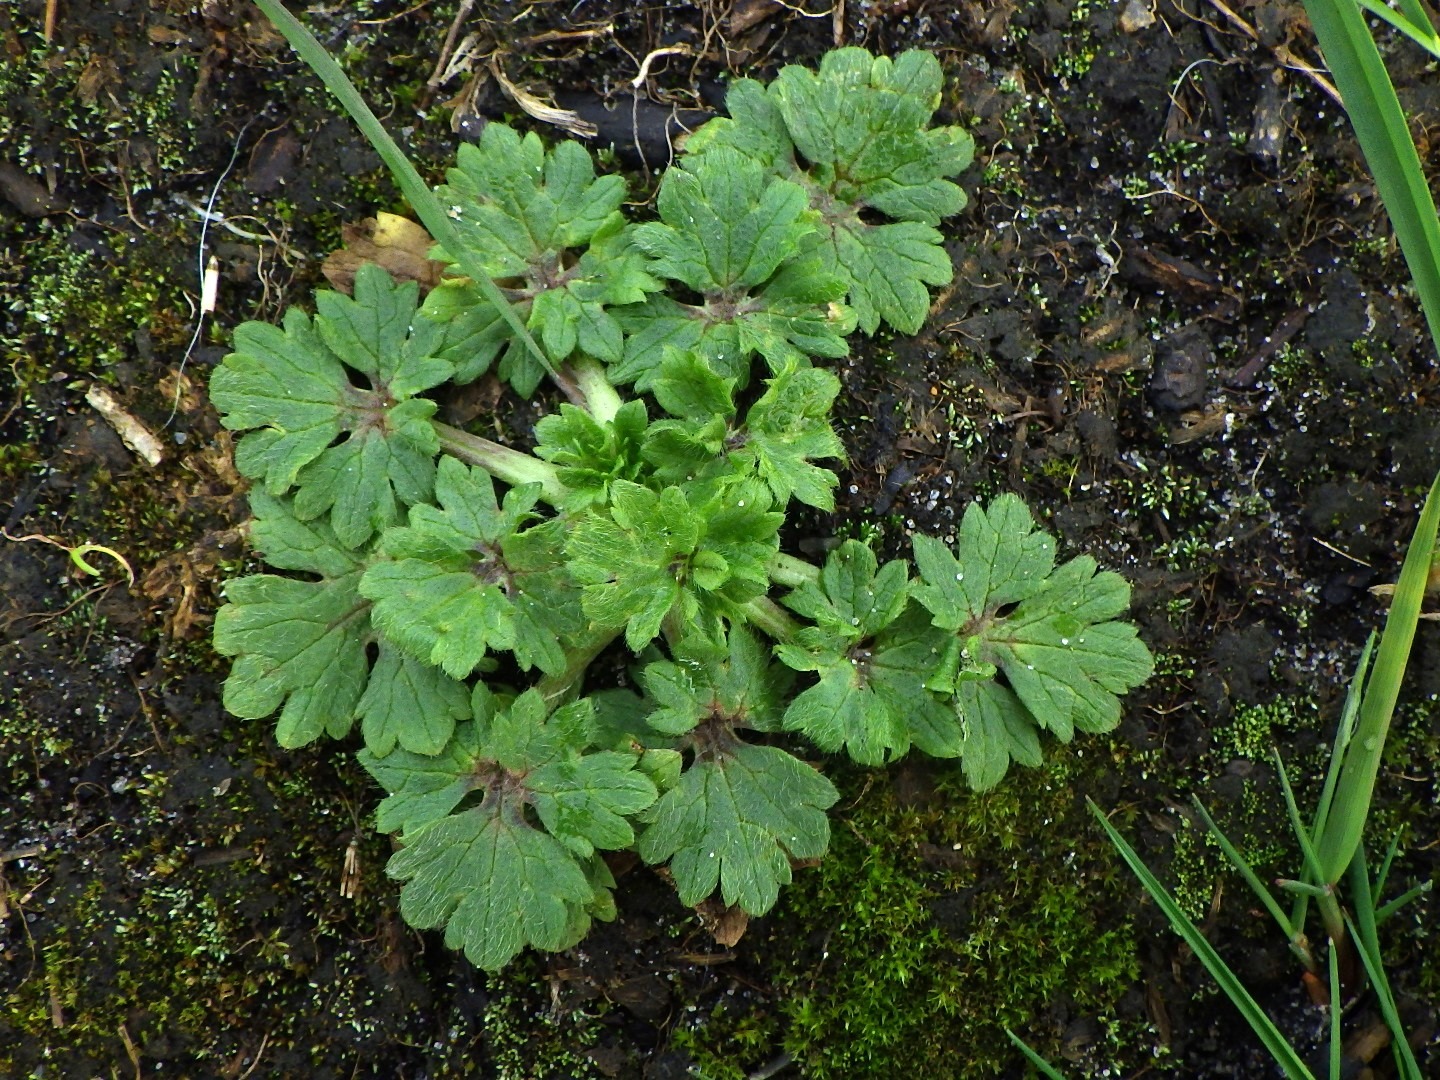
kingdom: Plantae
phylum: Tracheophyta
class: Magnoliopsida
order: Ranunculales
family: Ranunculaceae
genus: Ranunculus
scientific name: Ranunculus bulbosus
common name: Knold-ranunkel
